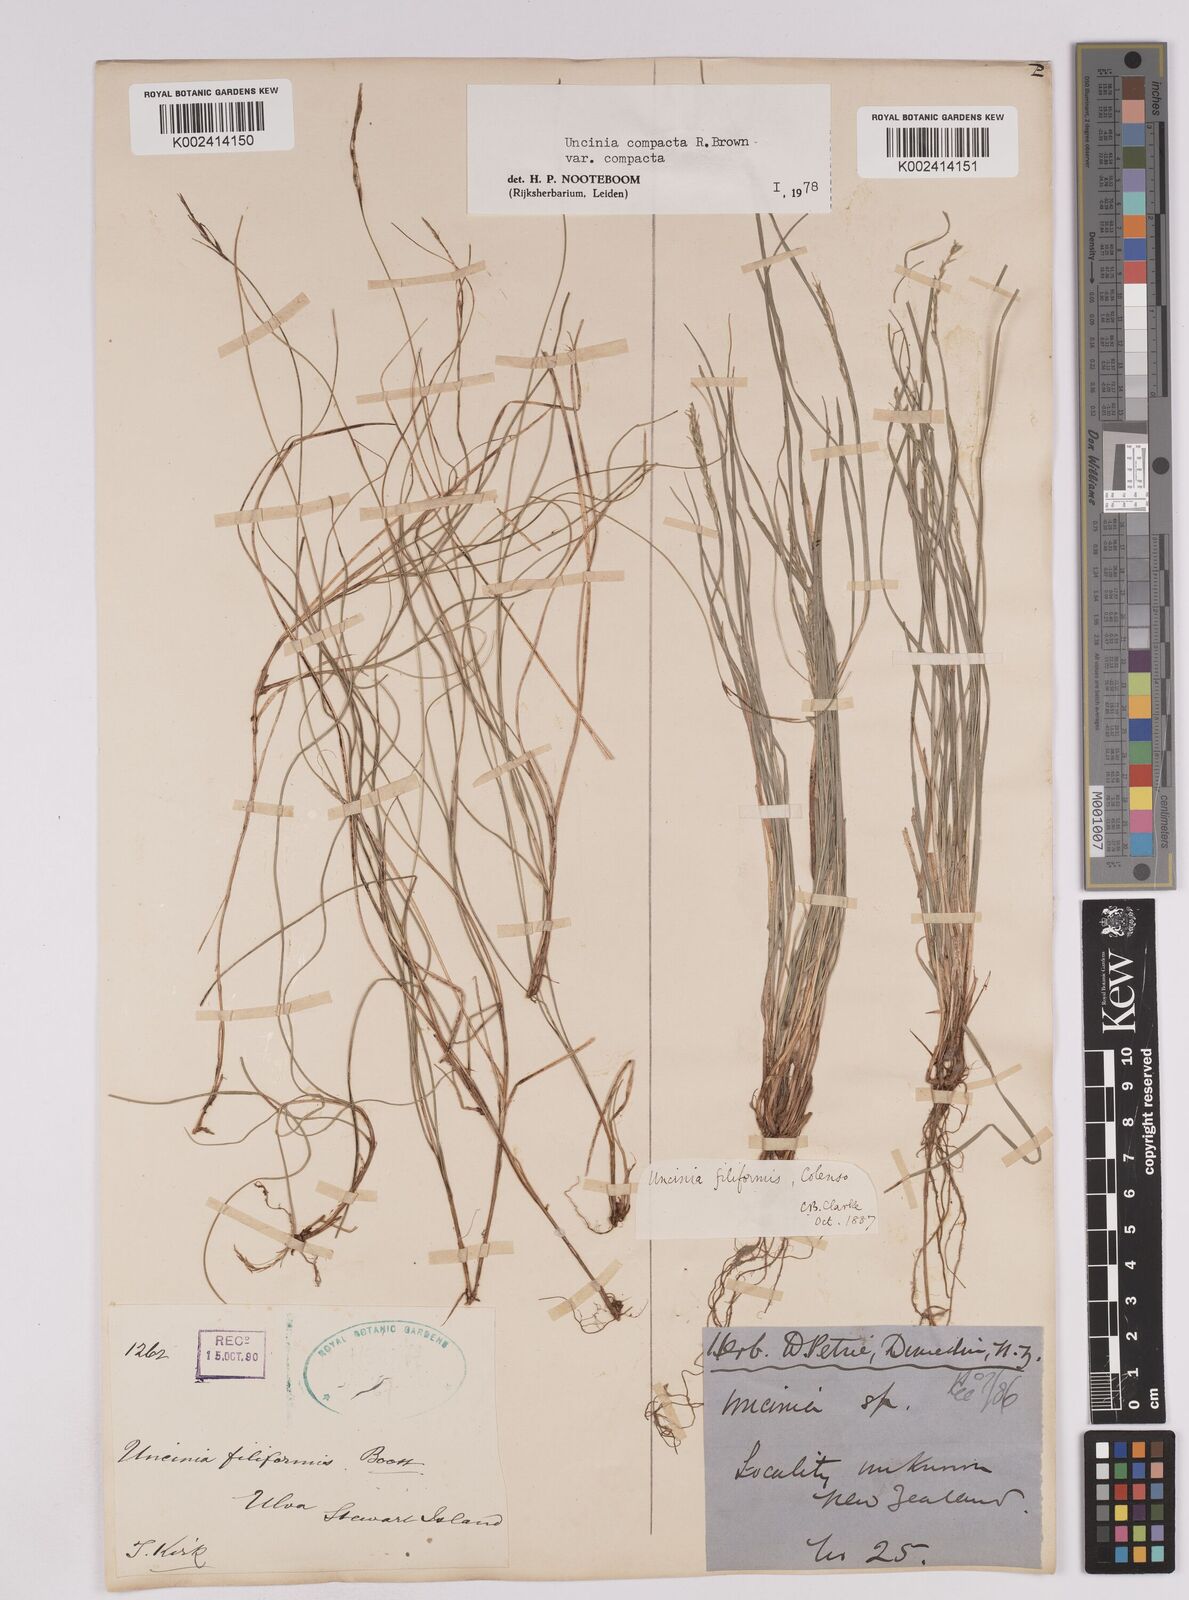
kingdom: Plantae
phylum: Tracheophyta
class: Liliopsida
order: Poales
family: Cyperaceae
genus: Carex
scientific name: Carex austrocompacta
